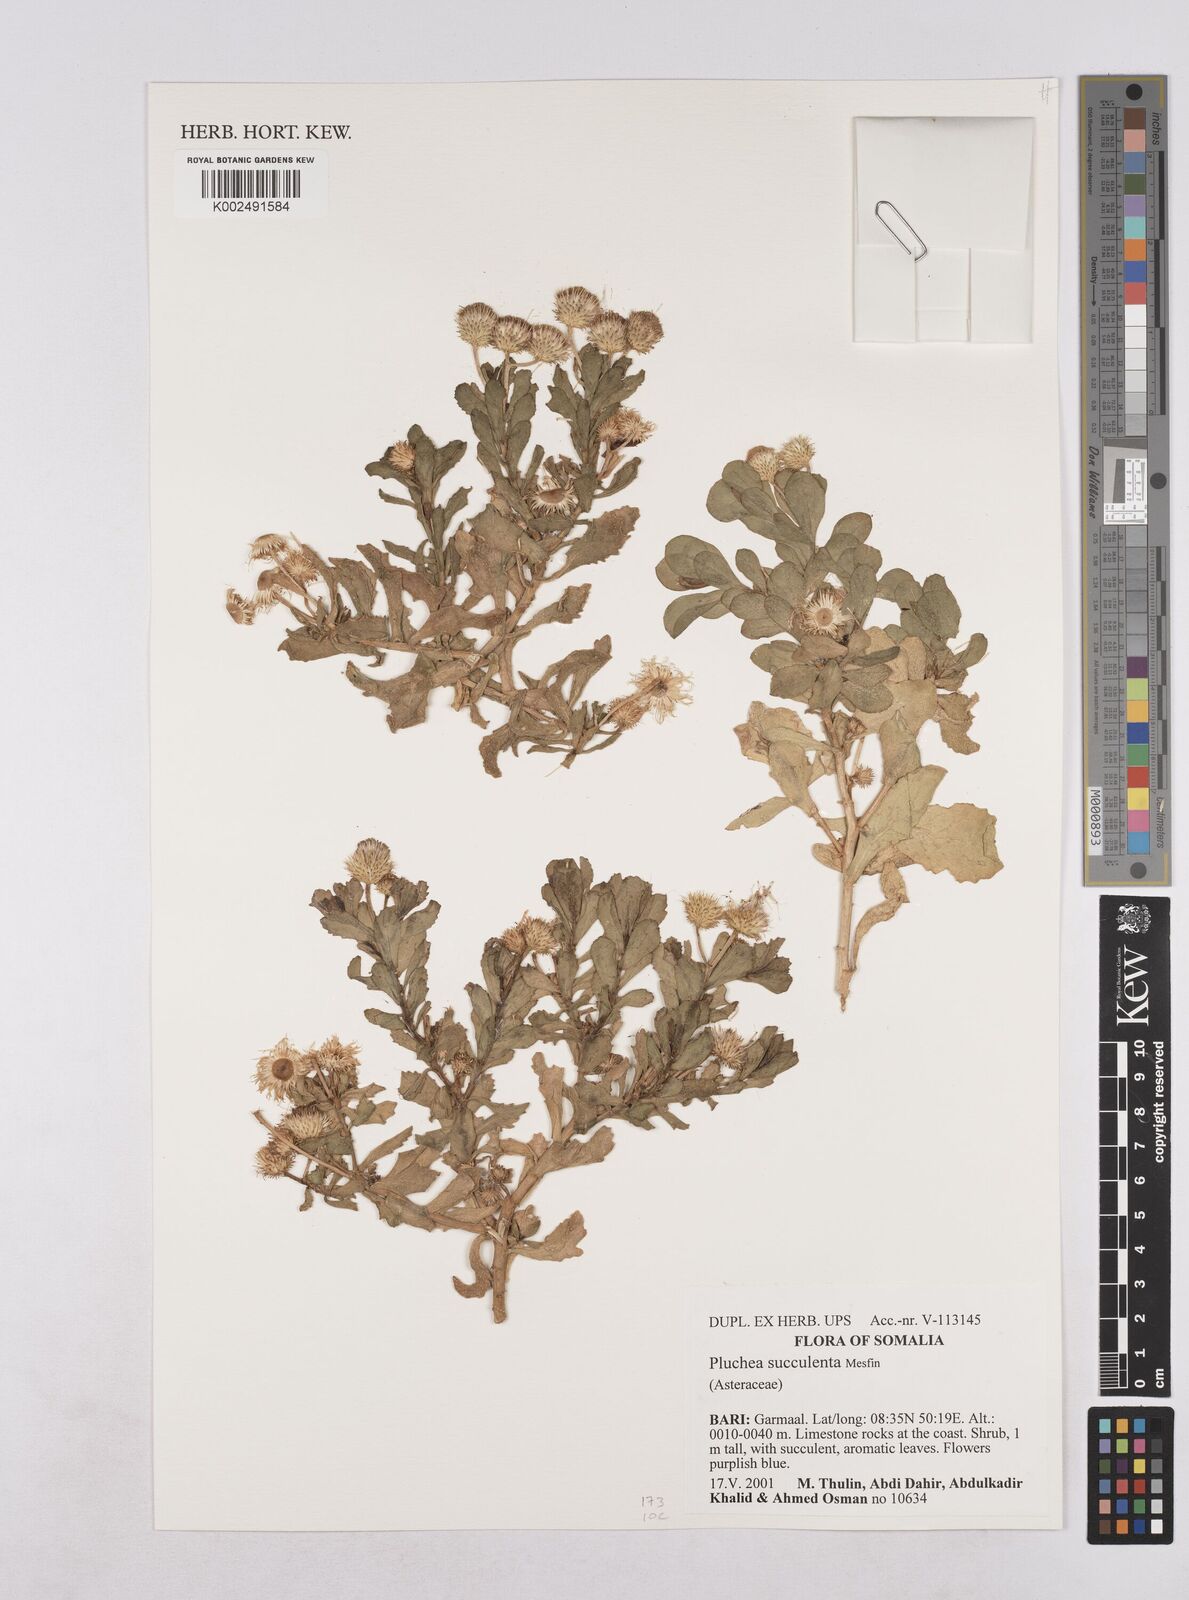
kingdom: Plantae
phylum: Tracheophyta
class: Magnoliopsida
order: Asterales
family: Asteraceae
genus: Pluchea
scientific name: Pluchea succulenta
